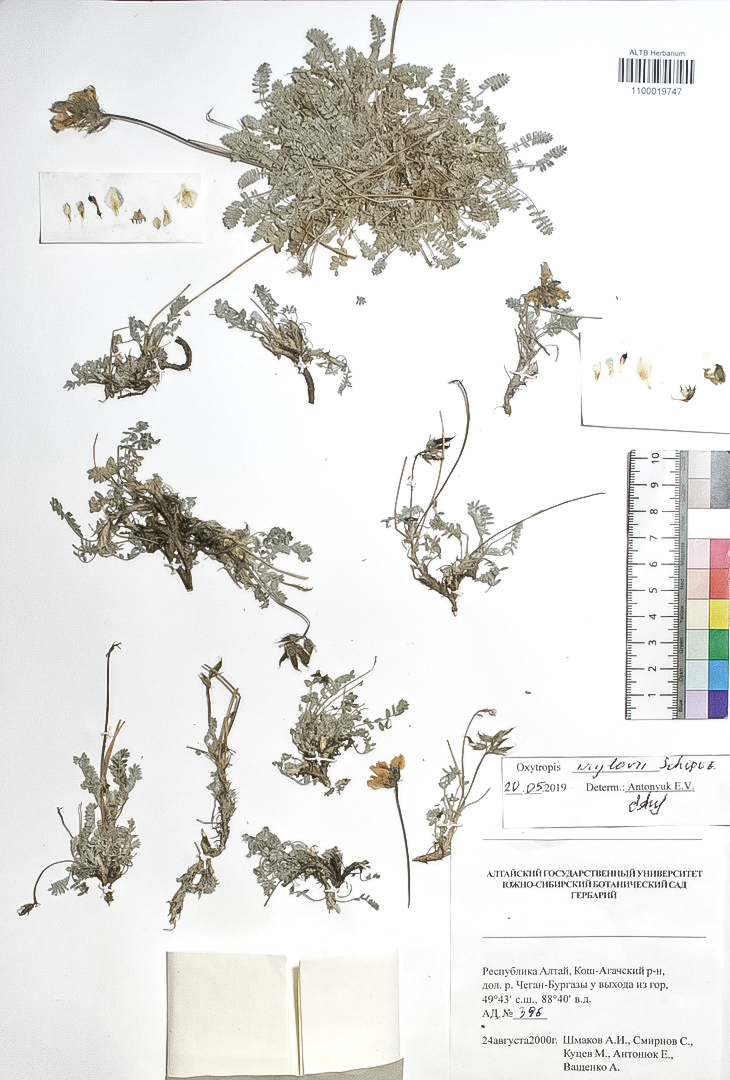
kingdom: Plantae
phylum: Tracheophyta
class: Magnoliopsida
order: Fabales
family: Fabaceae
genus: Oxytropis
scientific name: Oxytropis krylovii
